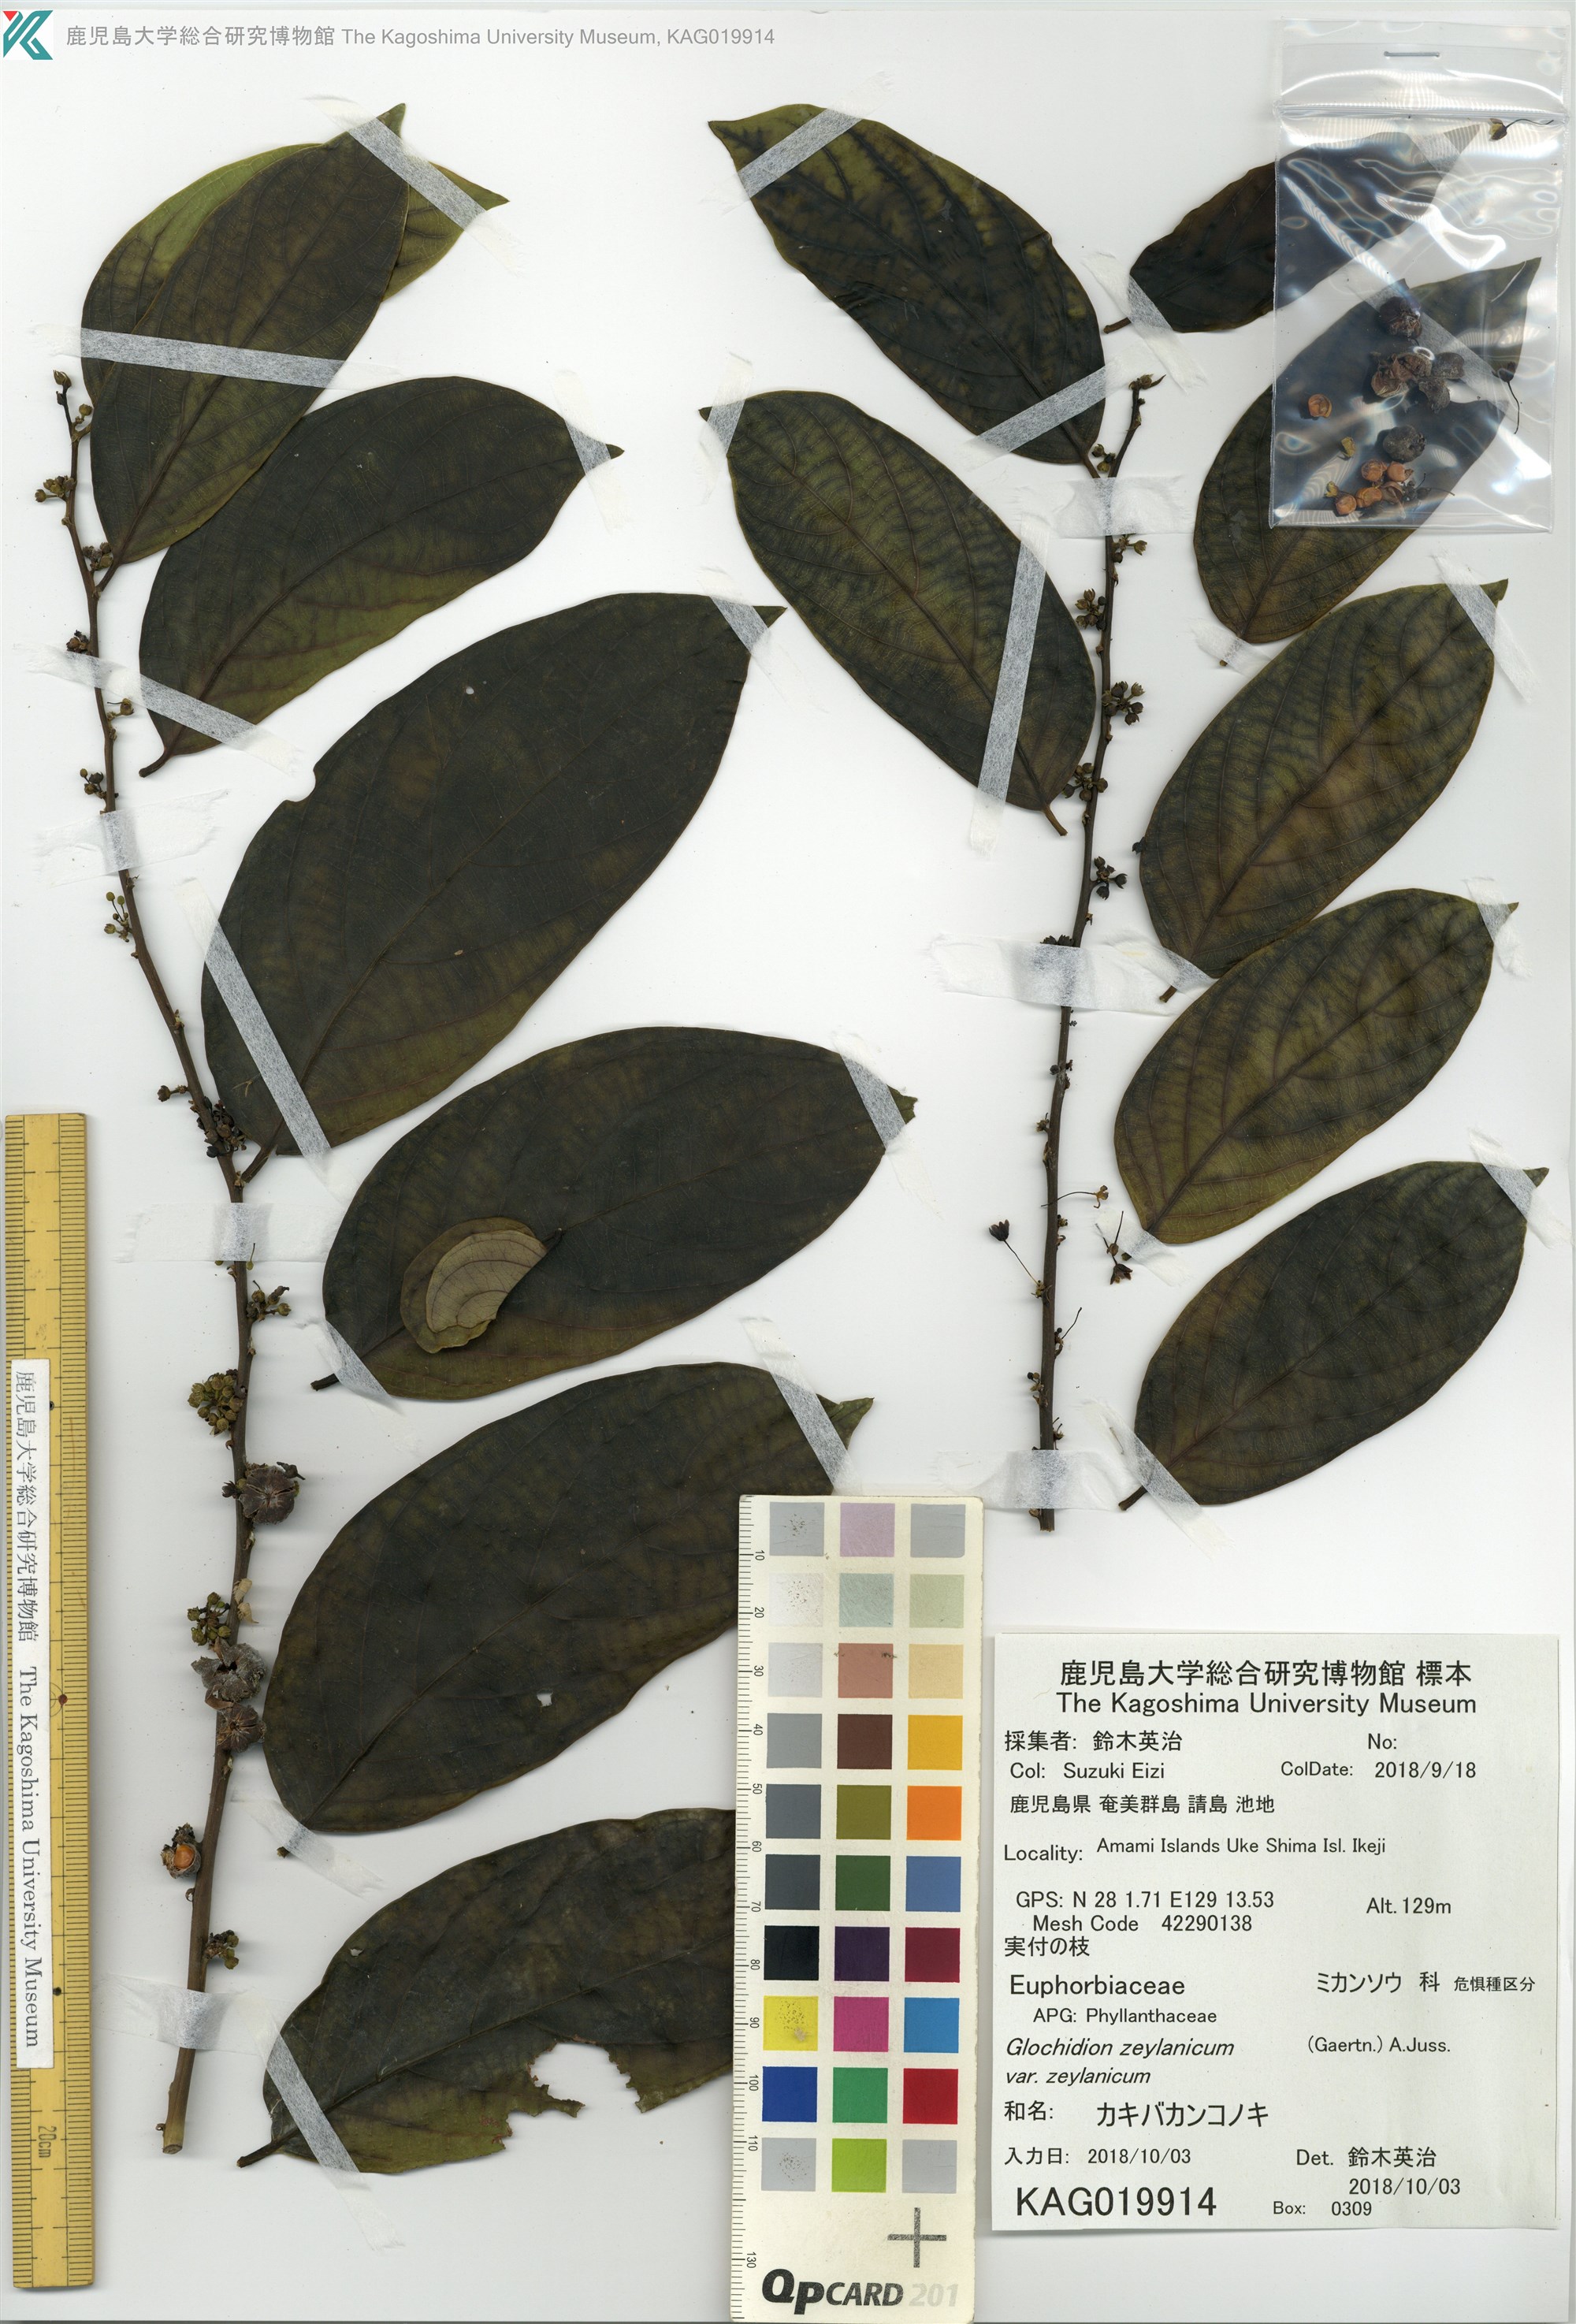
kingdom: Plantae
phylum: Tracheophyta
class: Magnoliopsida
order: Malpighiales
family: Phyllanthaceae
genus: Glochidion
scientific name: Glochidion zeylanicum
